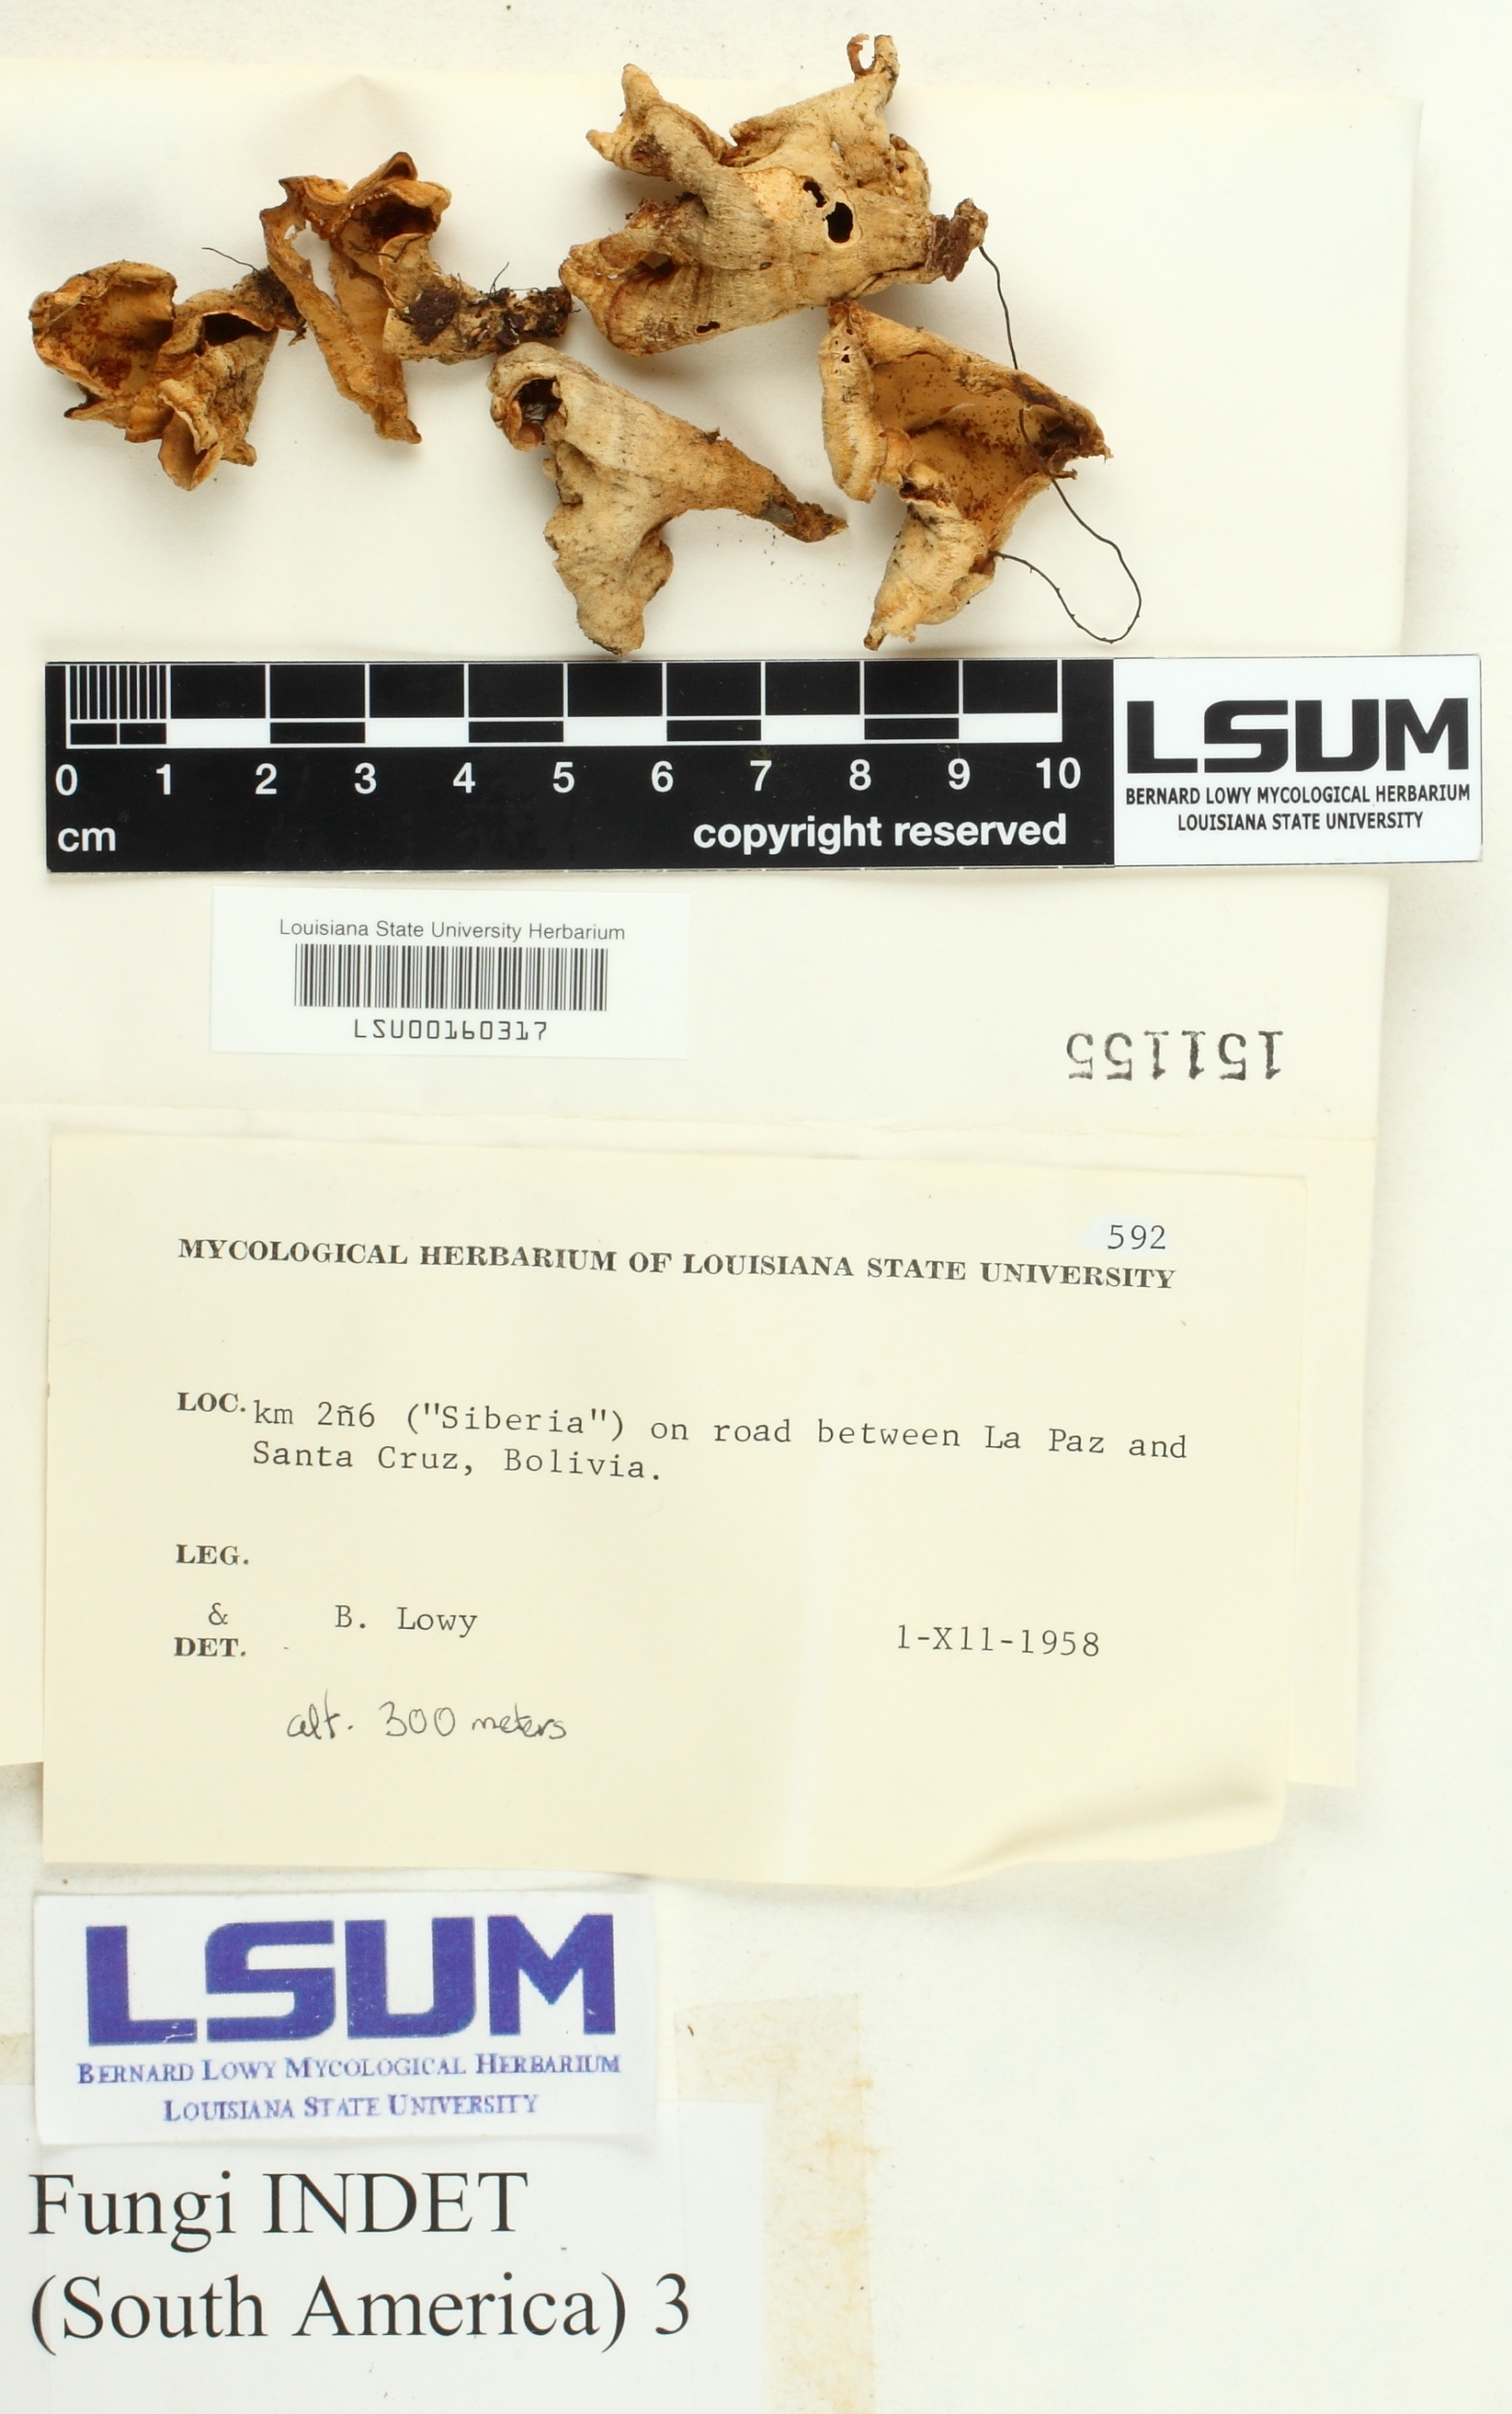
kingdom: Fungi
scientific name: Fungi
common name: Fungi
